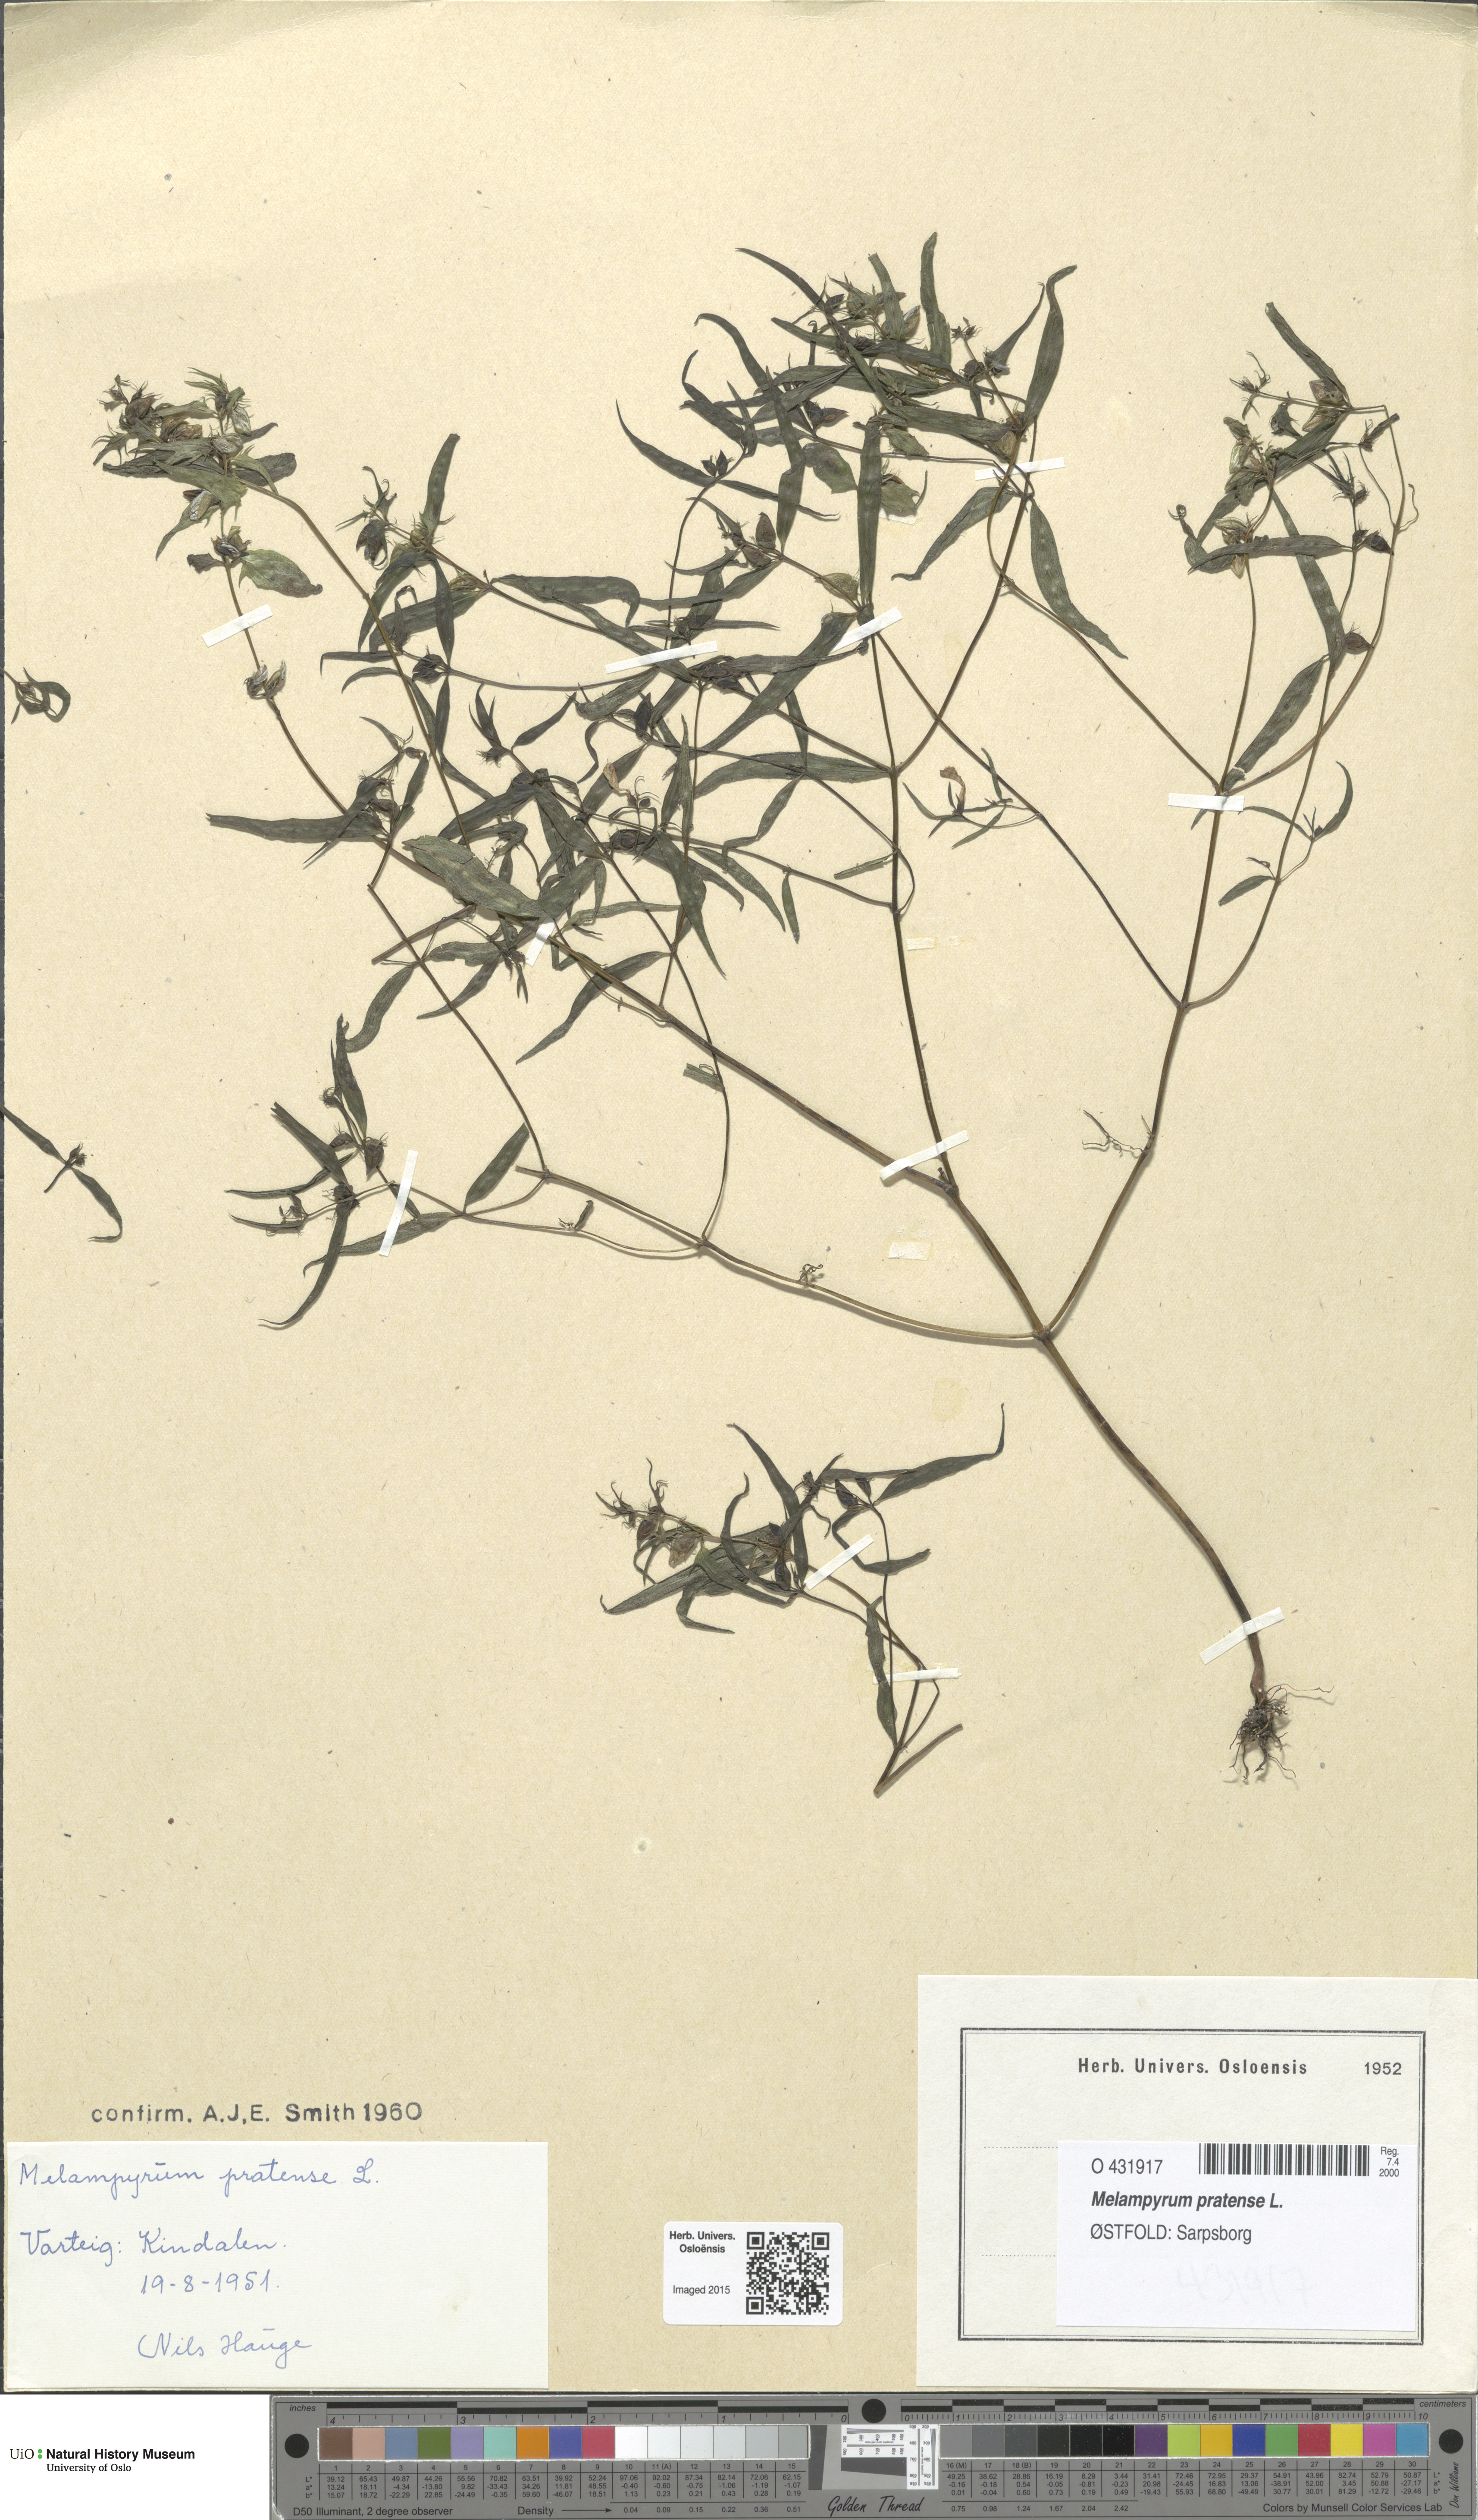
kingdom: Plantae
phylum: Tracheophyta
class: Magnoliopsida
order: Lamiales
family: Orobanchaceae
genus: Melampyrum
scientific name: Melampyrum pratense
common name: Common cow-wheat
